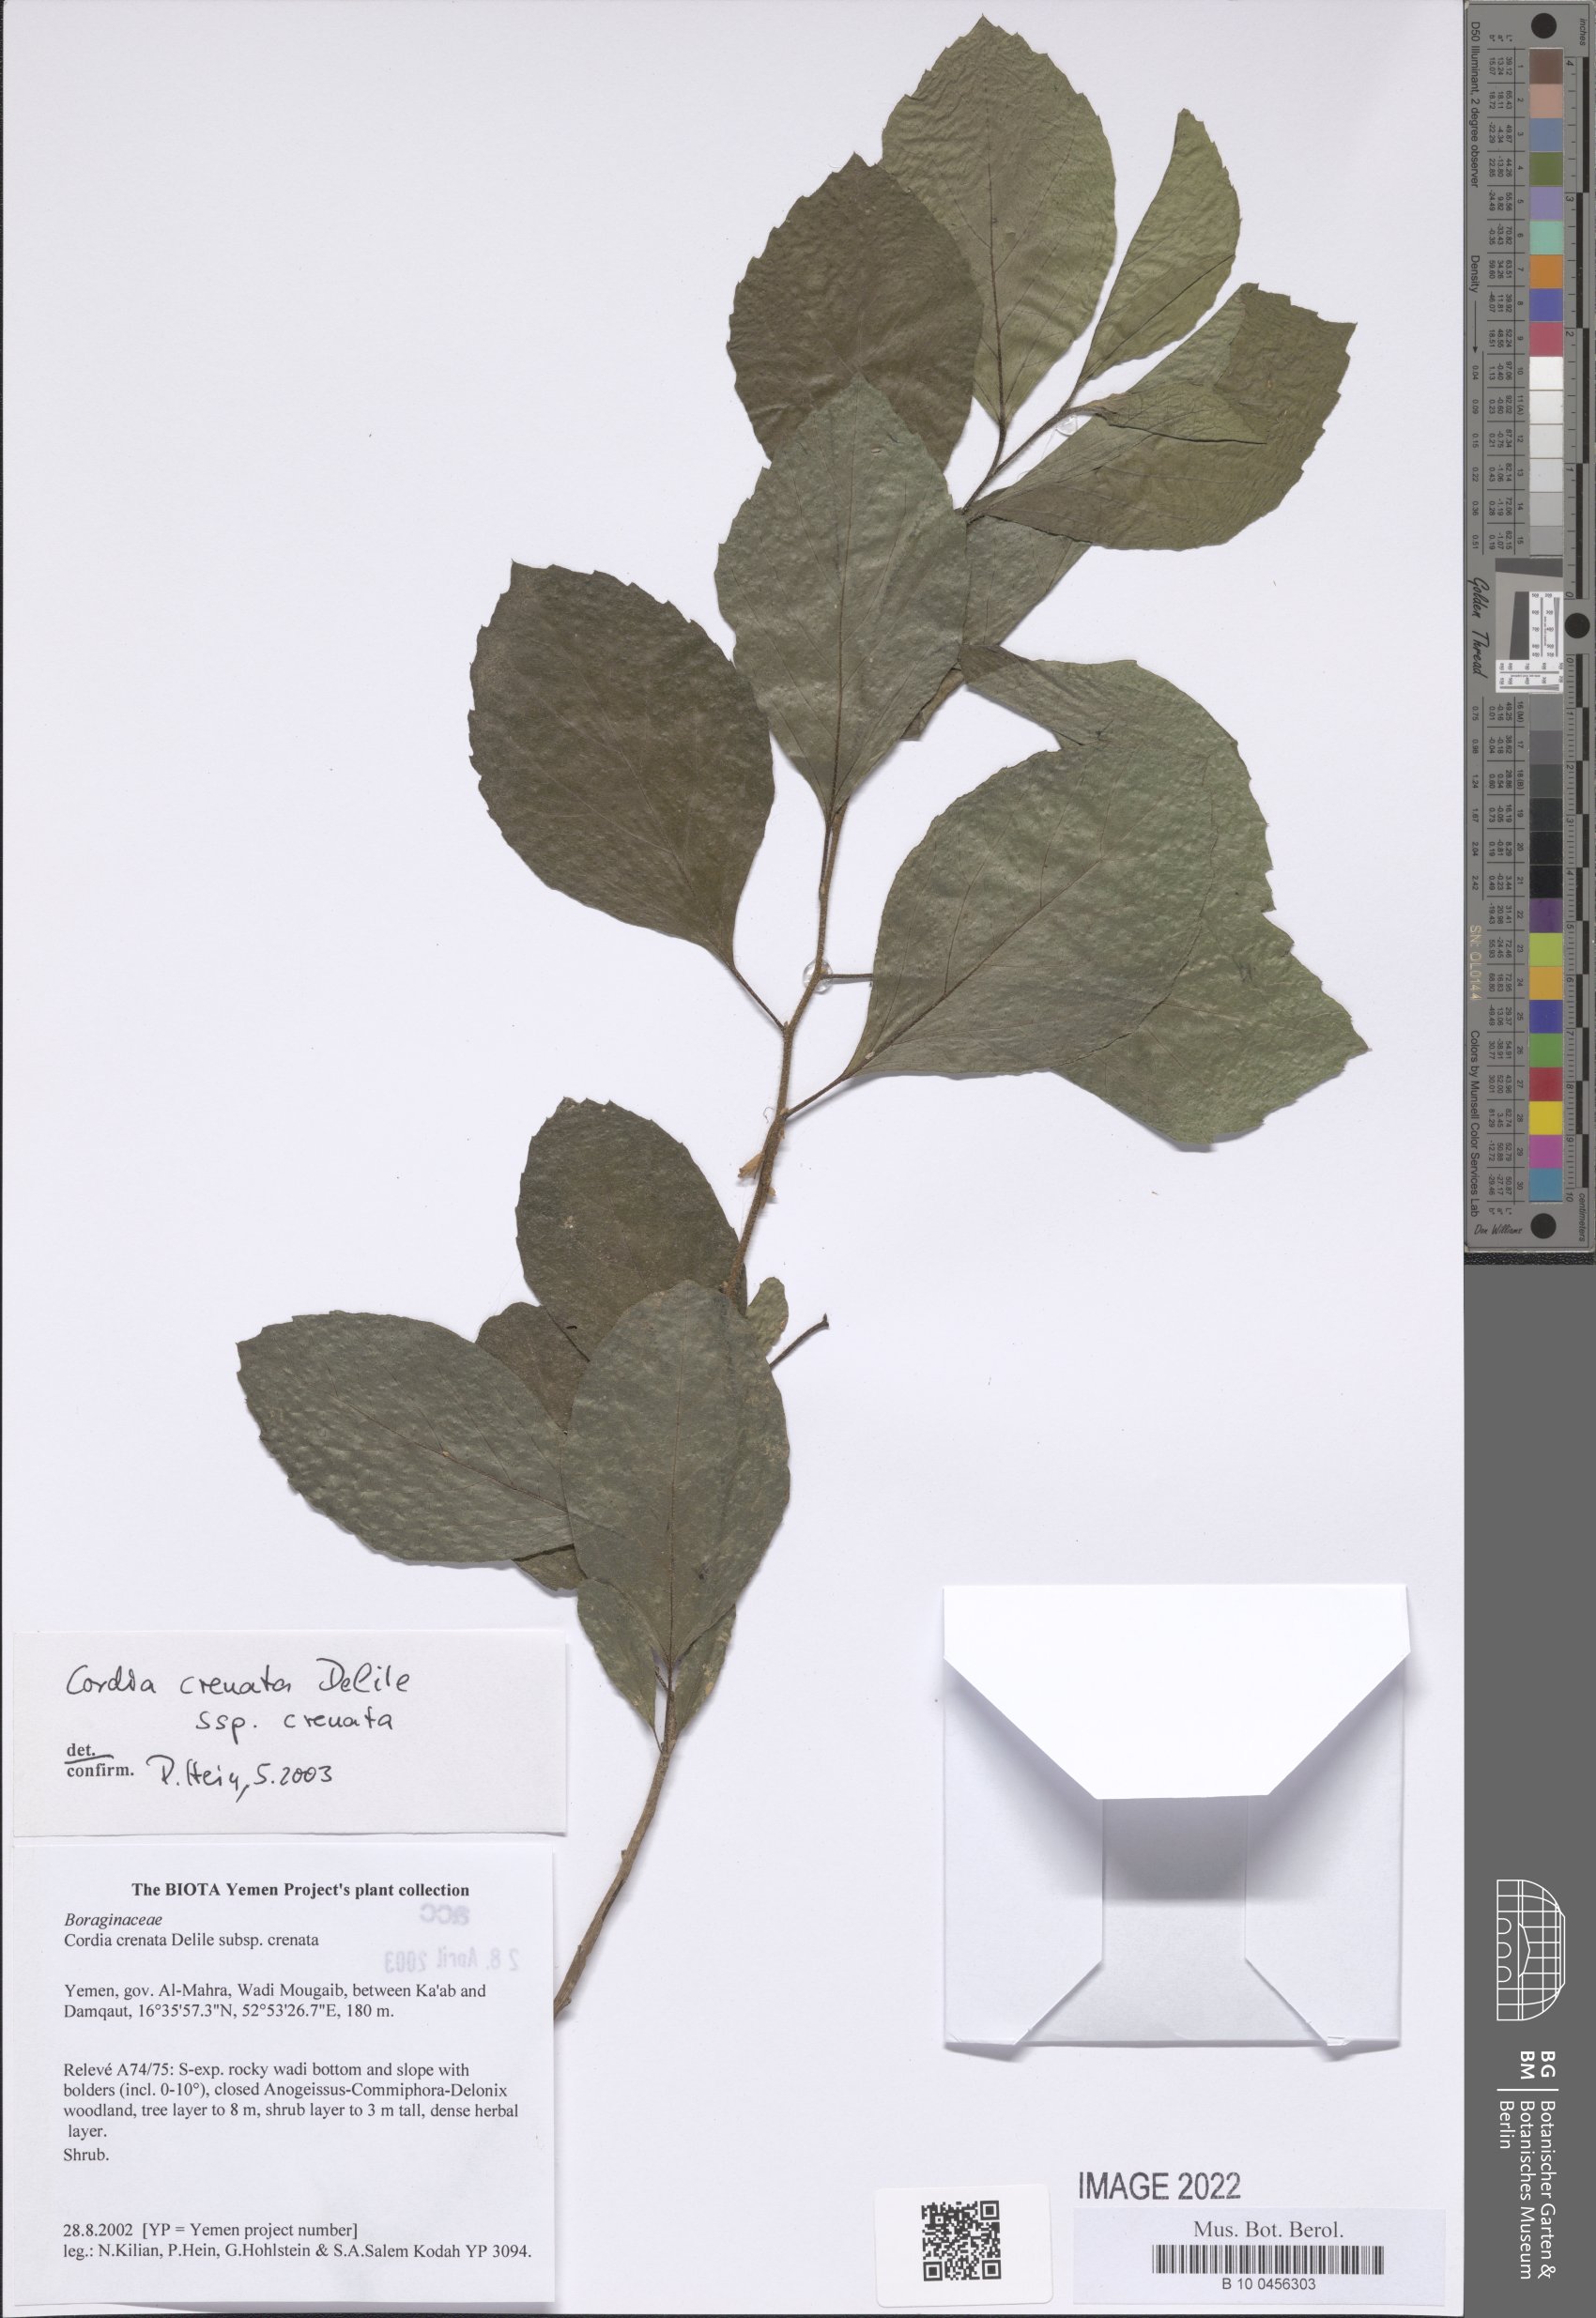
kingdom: Plantae
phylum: Tracheophyta
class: Magnoliopsida
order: Boraginales
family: Cordiaceae
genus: Cordia
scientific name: Cordia crenata
